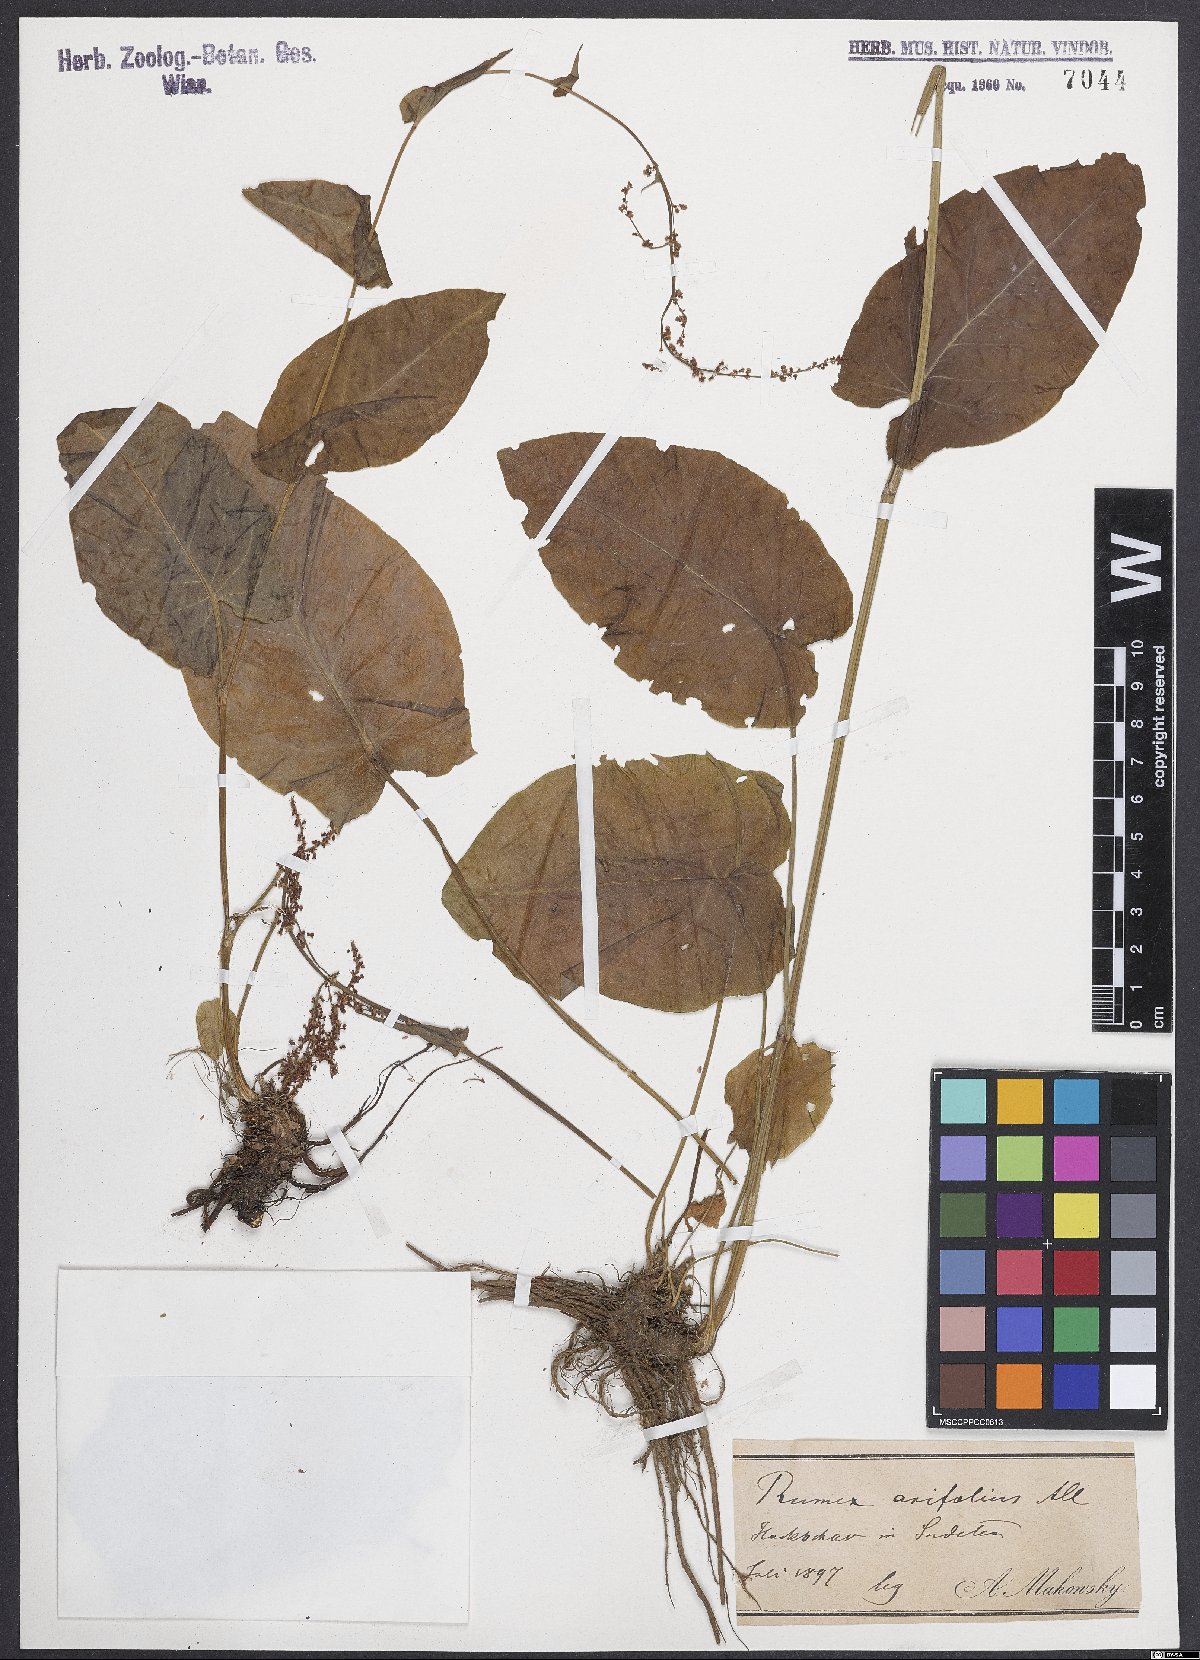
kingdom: Plantae
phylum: Tracheophyta
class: Magnoliopsida
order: Caryophyllales
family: Polygonaceae
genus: Rumex
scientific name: Rumex arifolius
